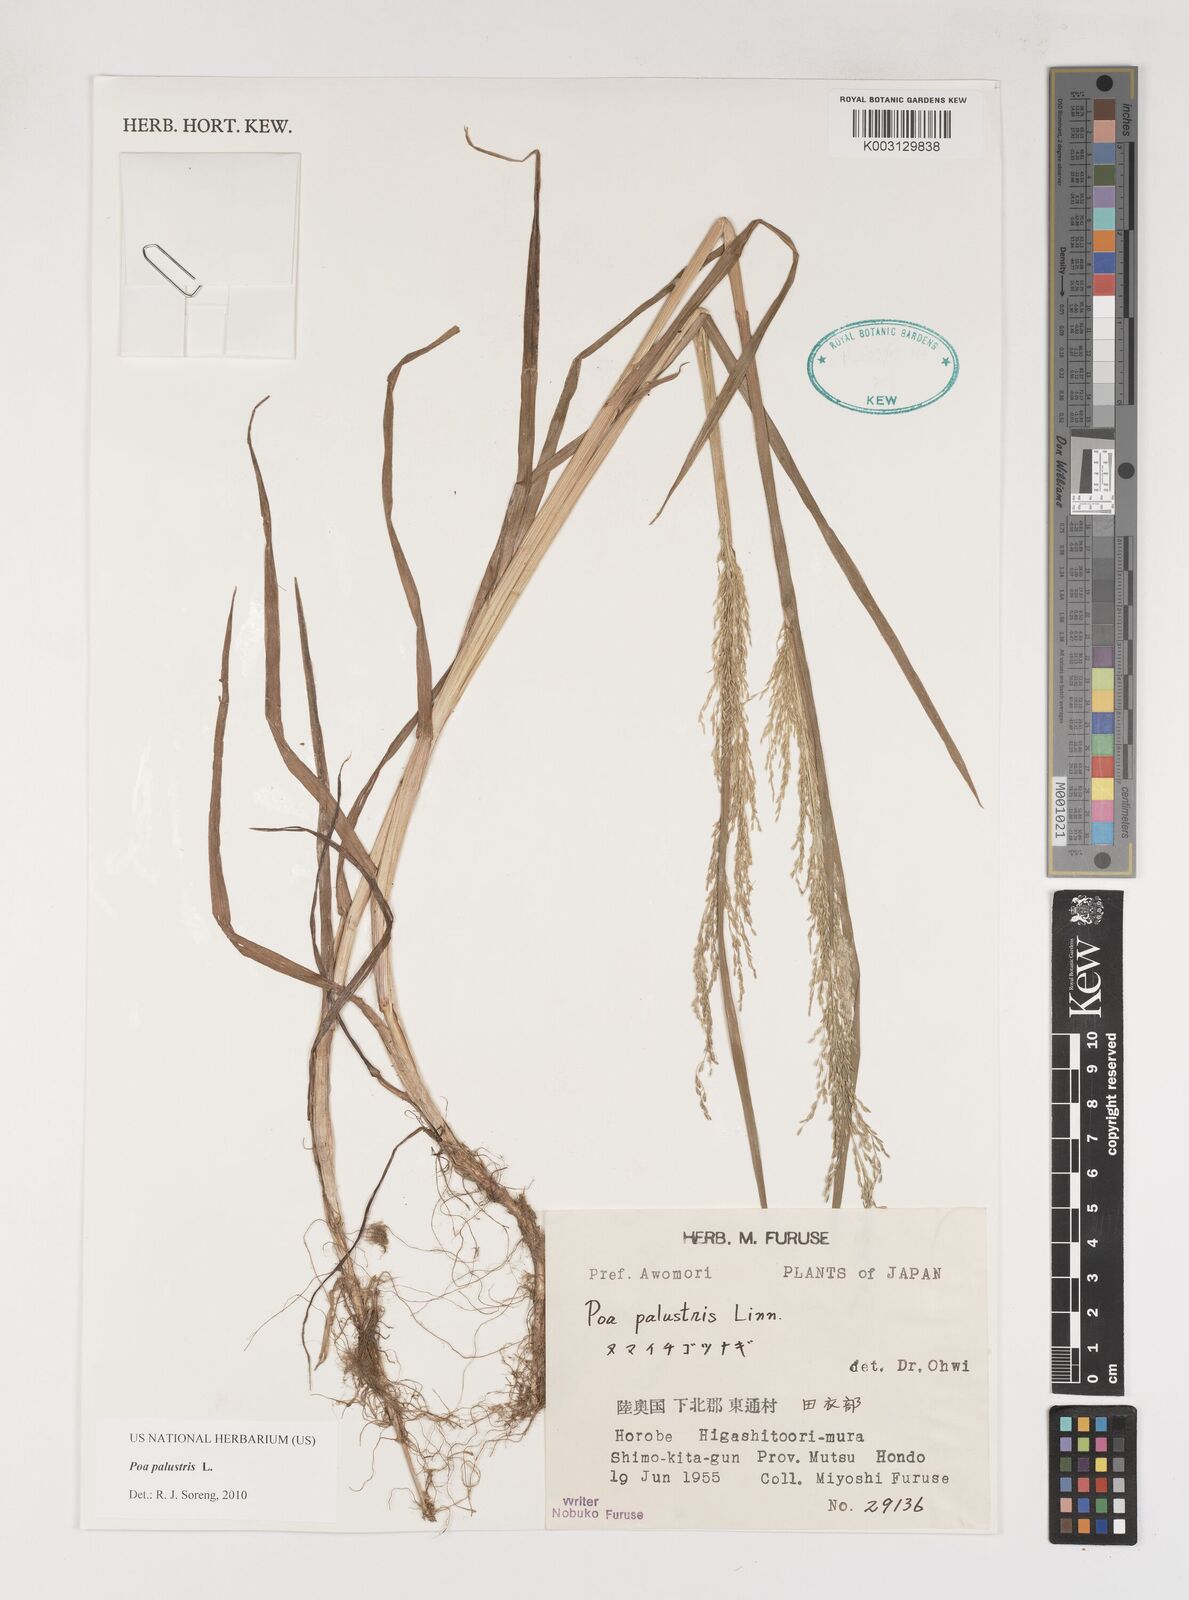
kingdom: Plantae
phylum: Tracheophyta
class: Liliopsida
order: Poales
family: Poaceae
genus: Poa
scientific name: Poa palustris
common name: Swamp meadow-grass
